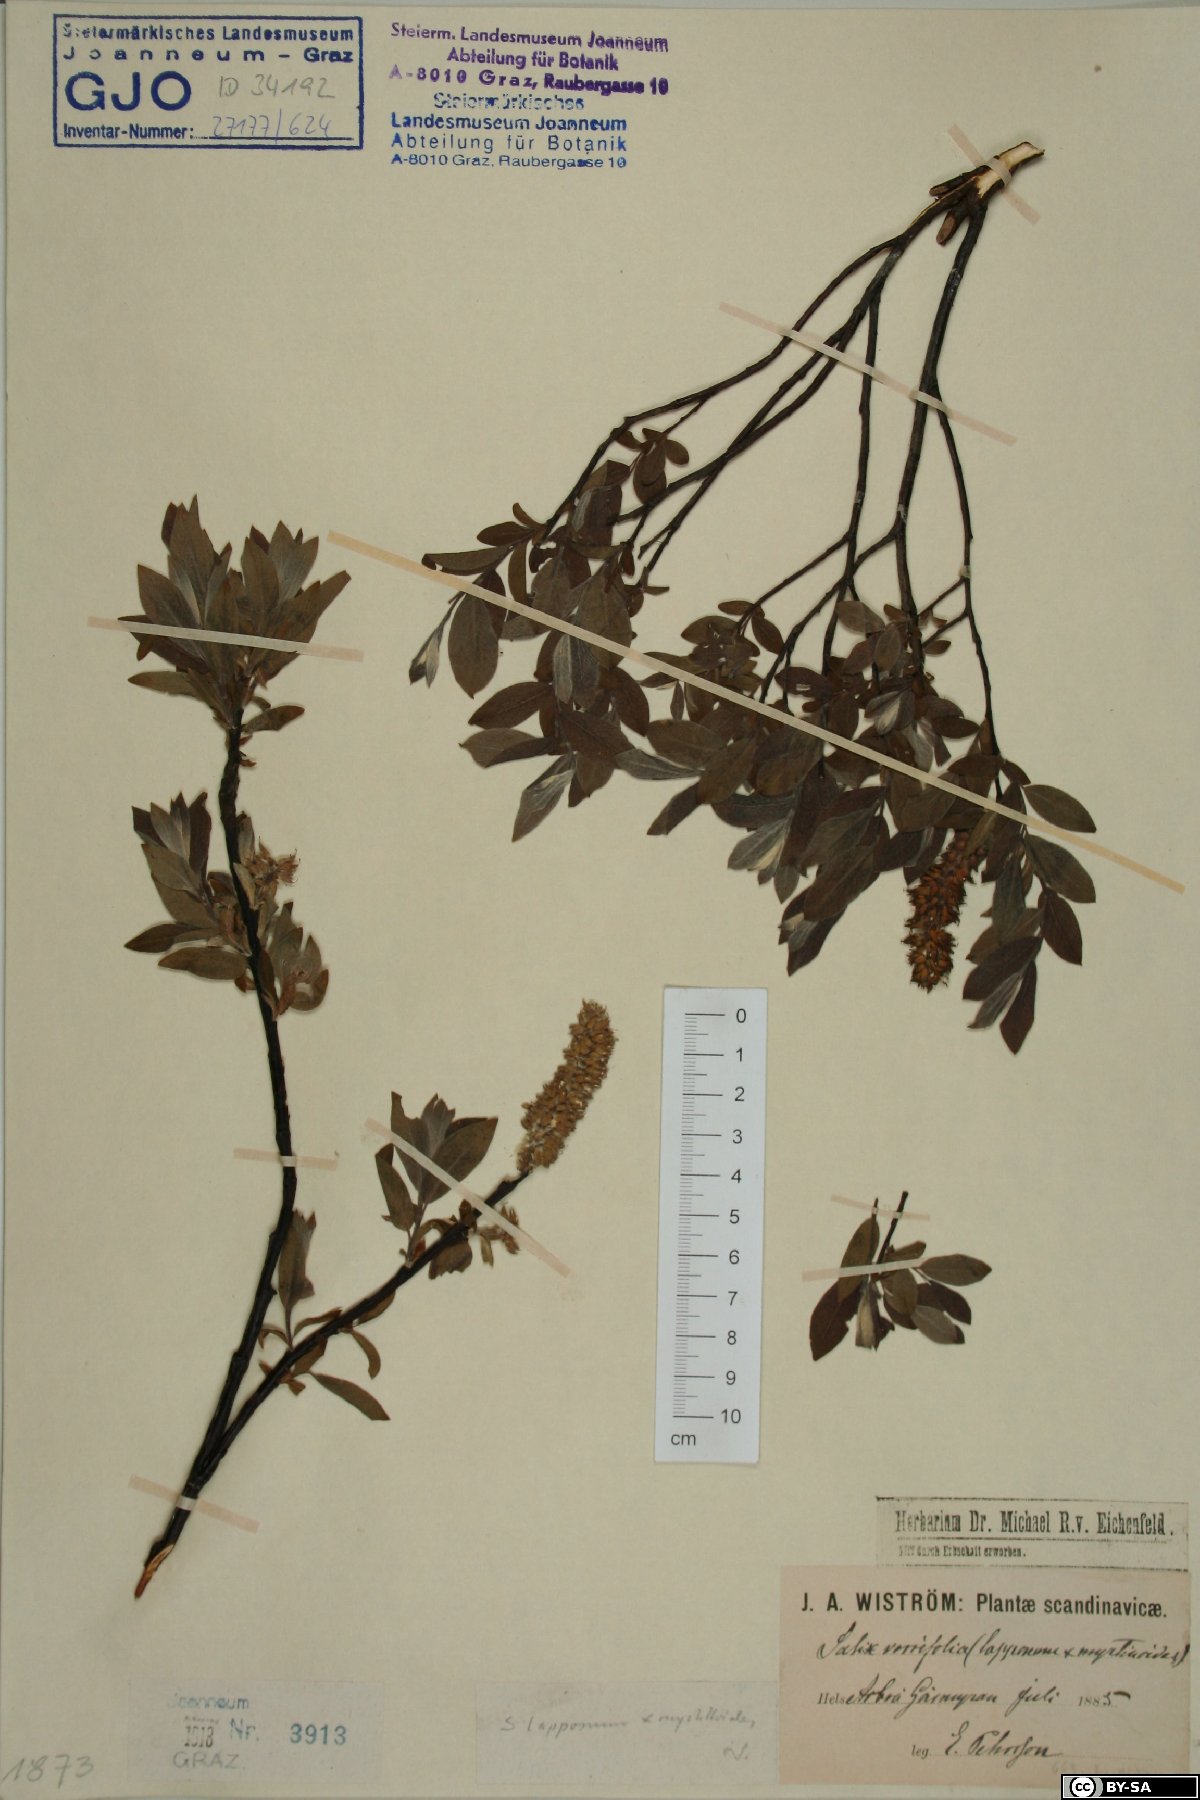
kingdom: Plantae
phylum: Tracheophyta
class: Magnoliopsida
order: Malpighiales
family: Salicaceae
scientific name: Salicaceae
